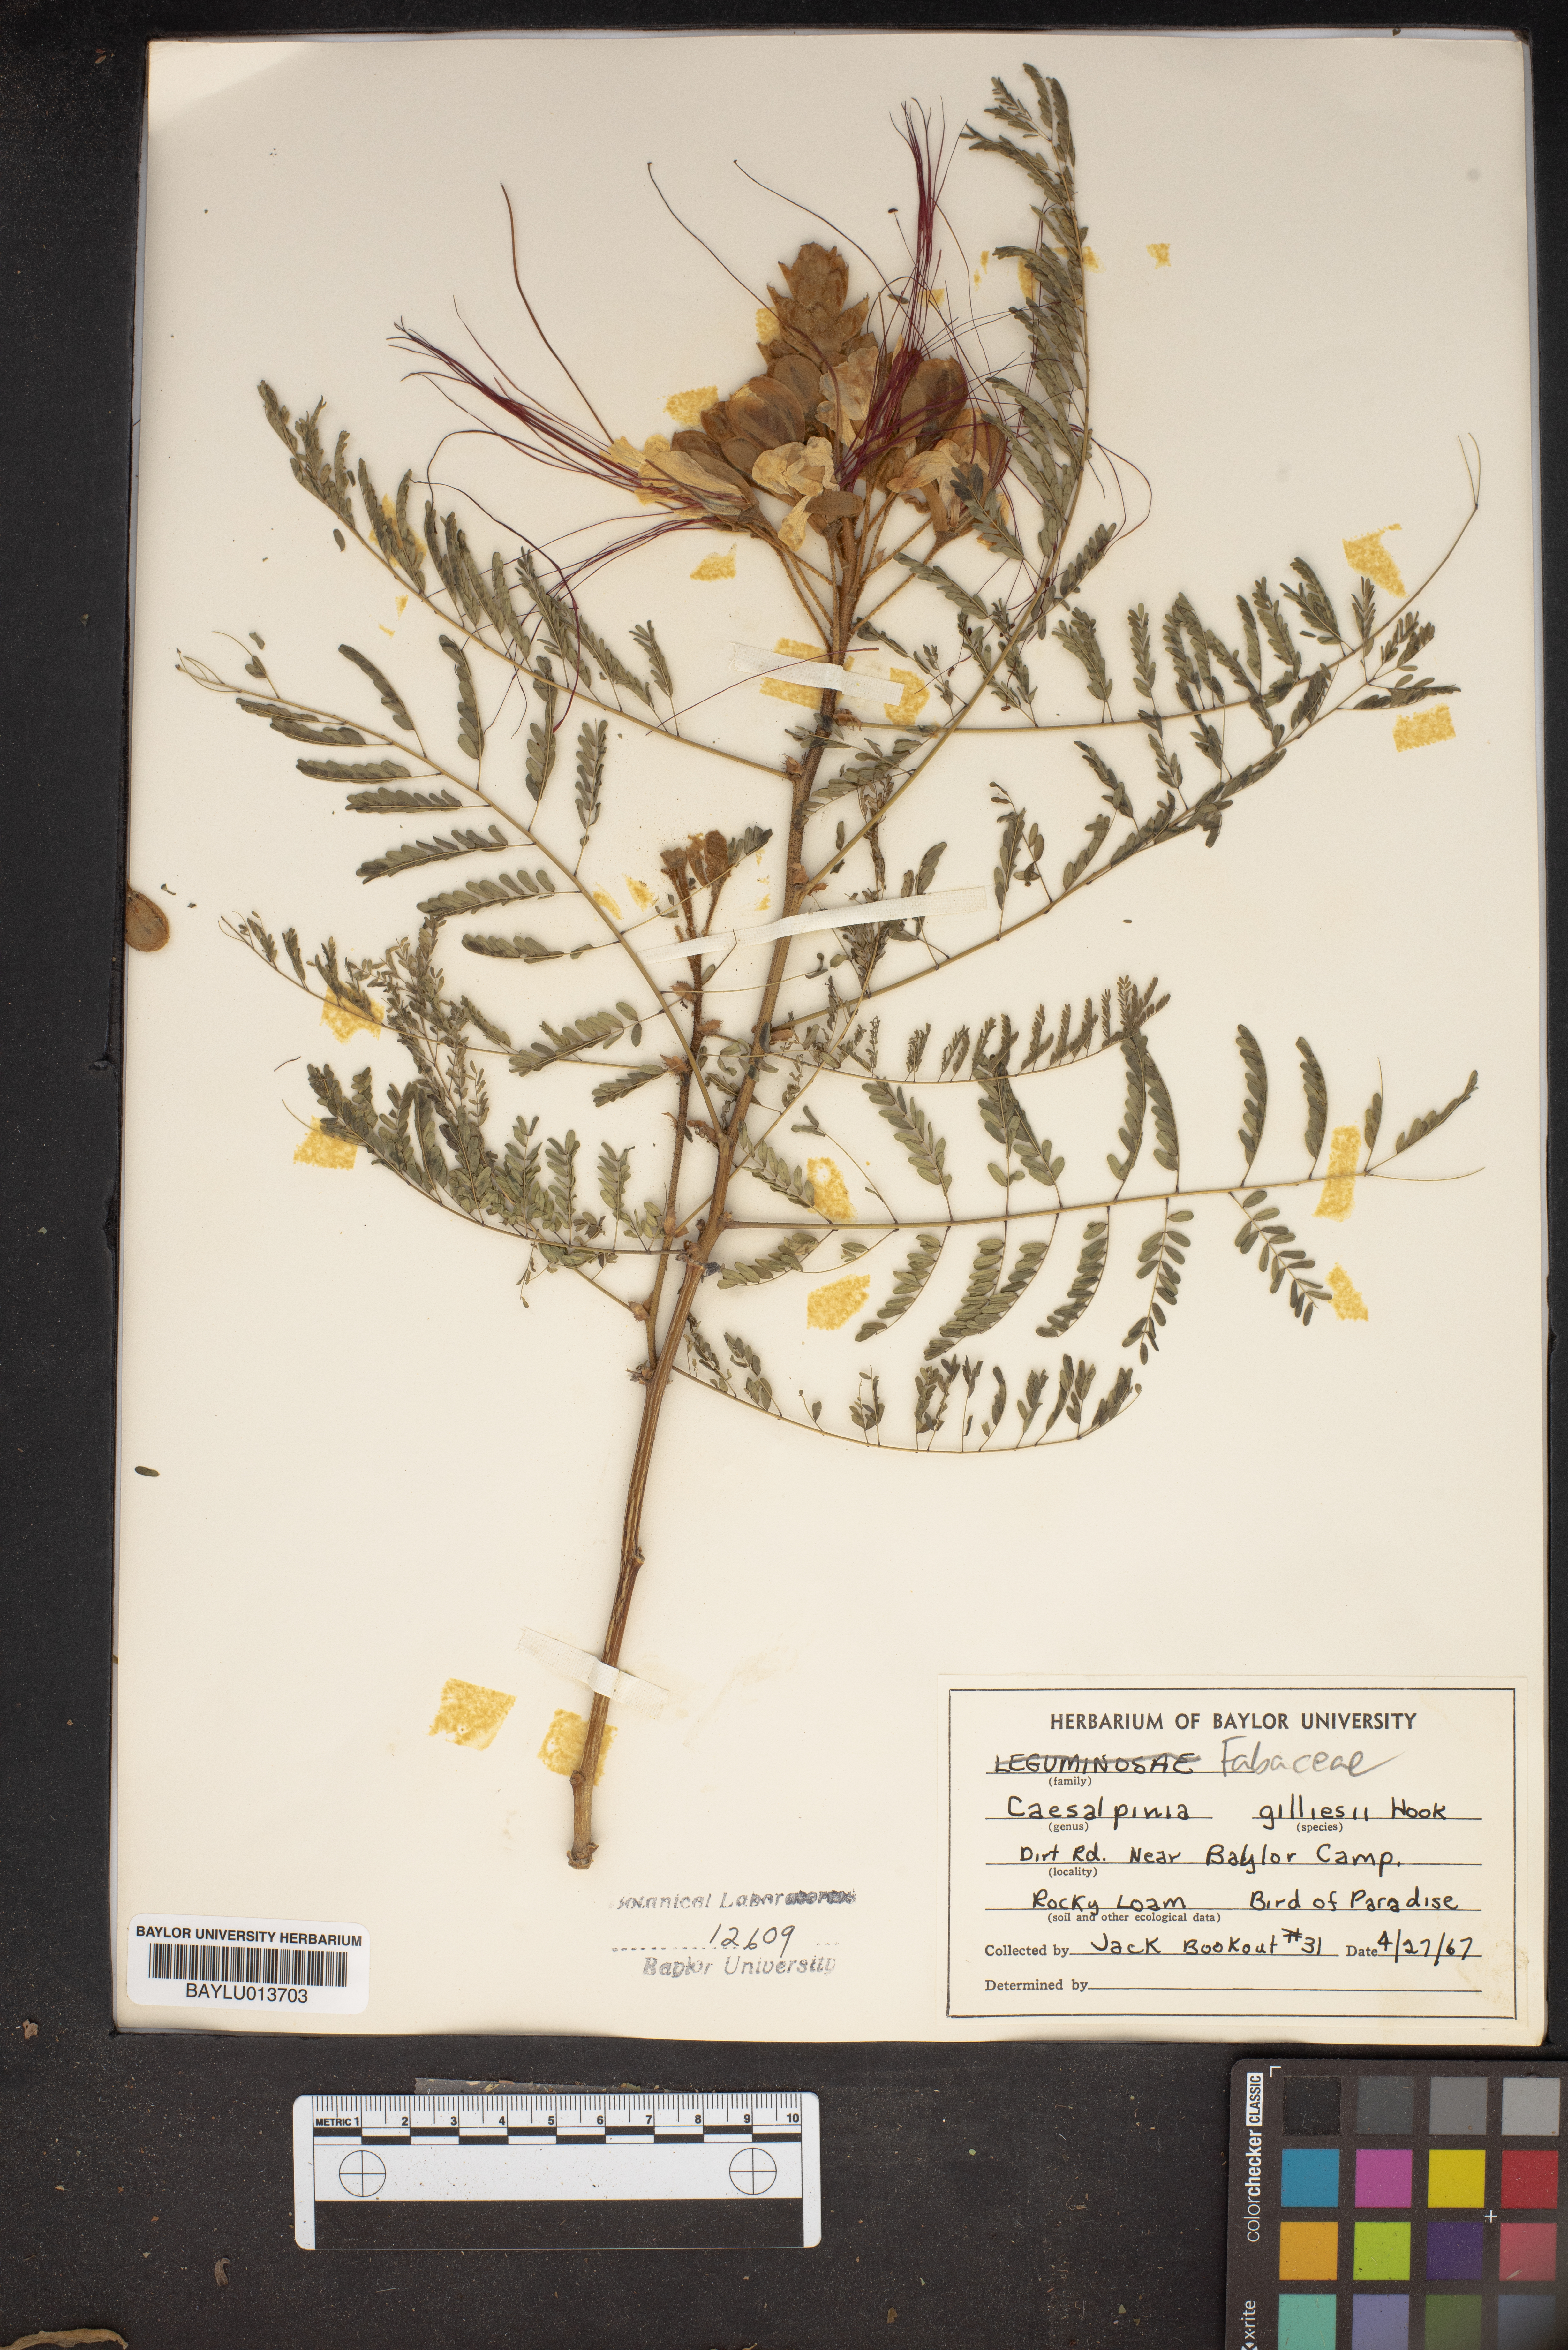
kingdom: Plantae
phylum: Tracheophyta
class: Magnoliopsida
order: Fabales
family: Fabaceae
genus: Erythrostemon
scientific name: Erythrostemon gilliesii
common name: Bird-of-paradise shrub
